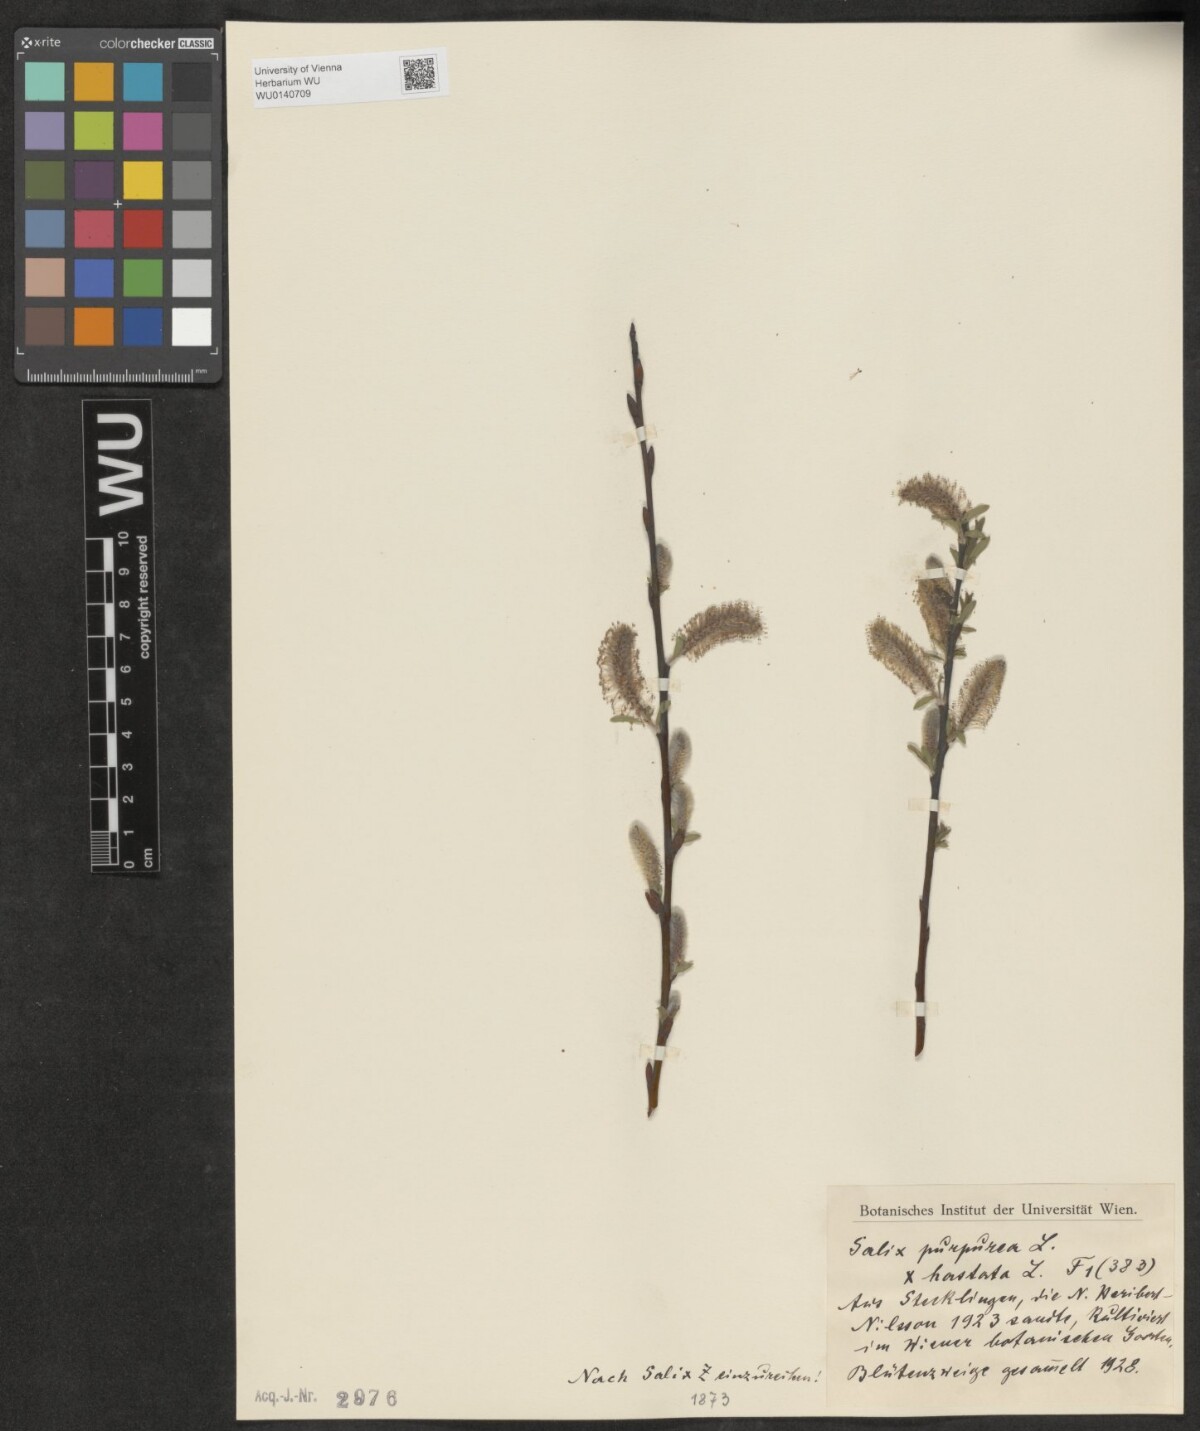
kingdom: Plantae
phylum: Tracheophyta
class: Magnoliopsida
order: Malpighiales
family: Salicaceae
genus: Salix
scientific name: Salix
